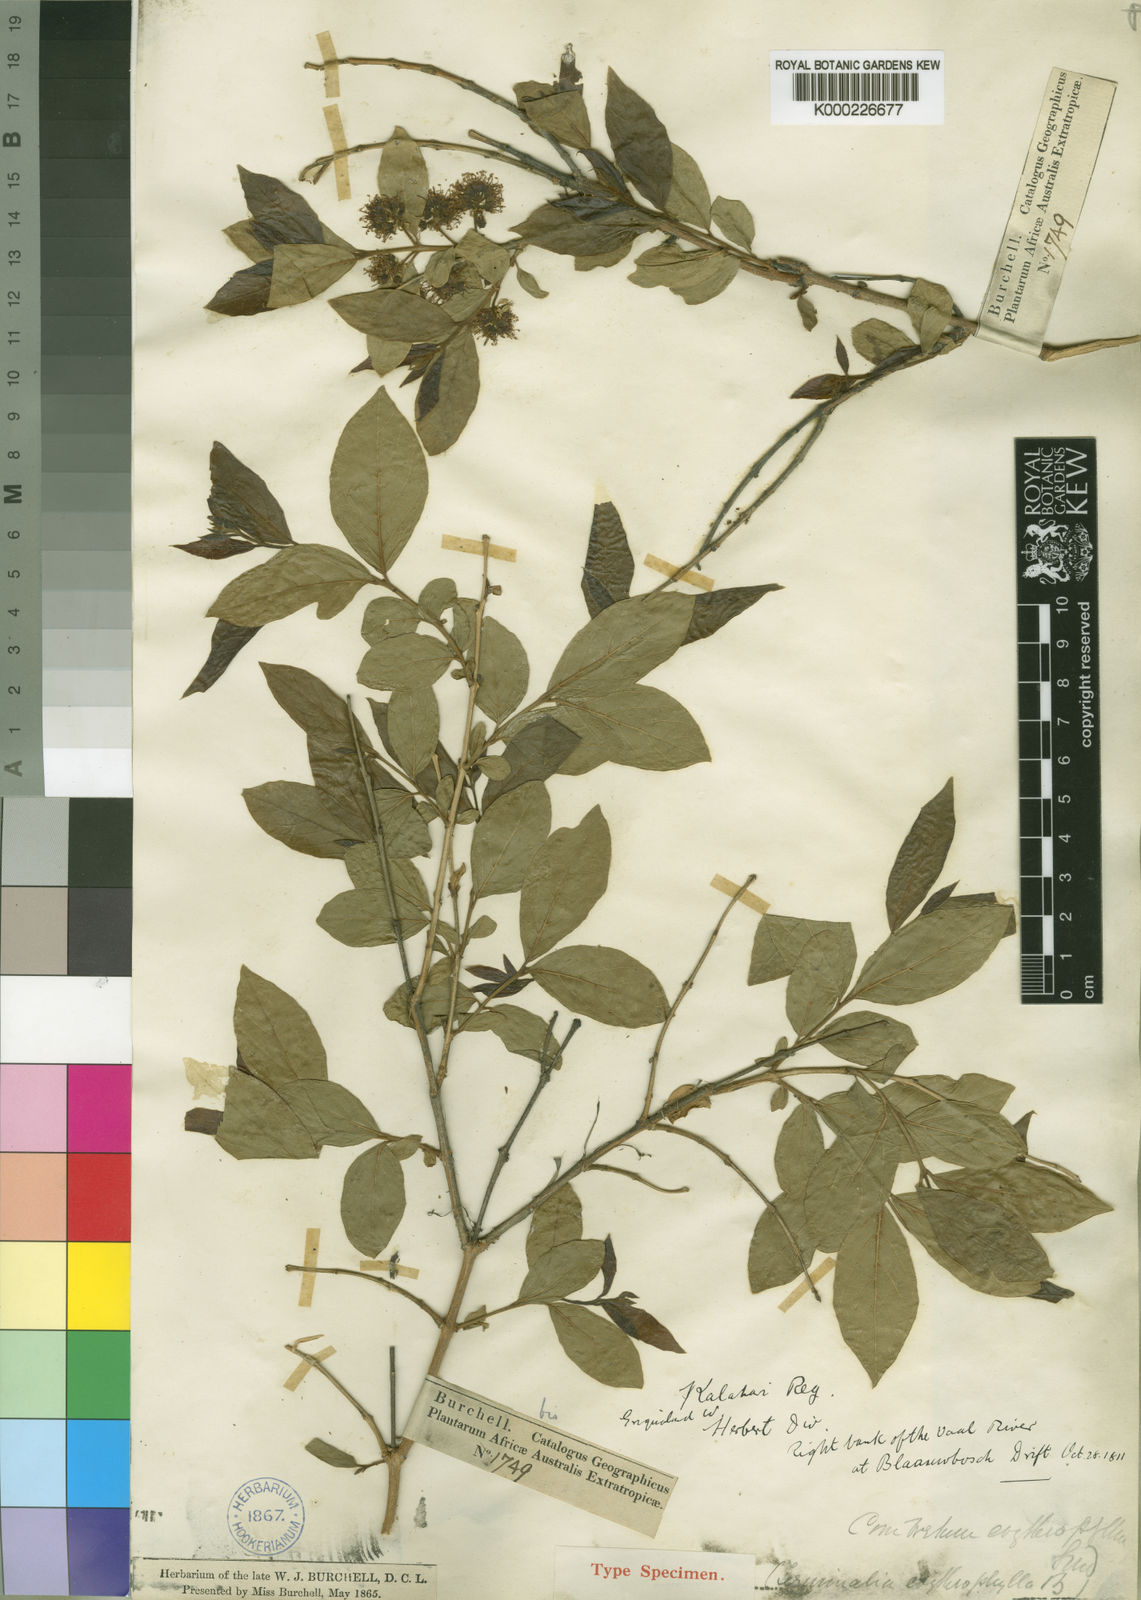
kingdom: Plantae
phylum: Tracheophyta
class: Magnoliopsida
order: Myrtales
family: Combretaceae
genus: Combretum
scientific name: Combretum erythrophyllum
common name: Bush-willow
